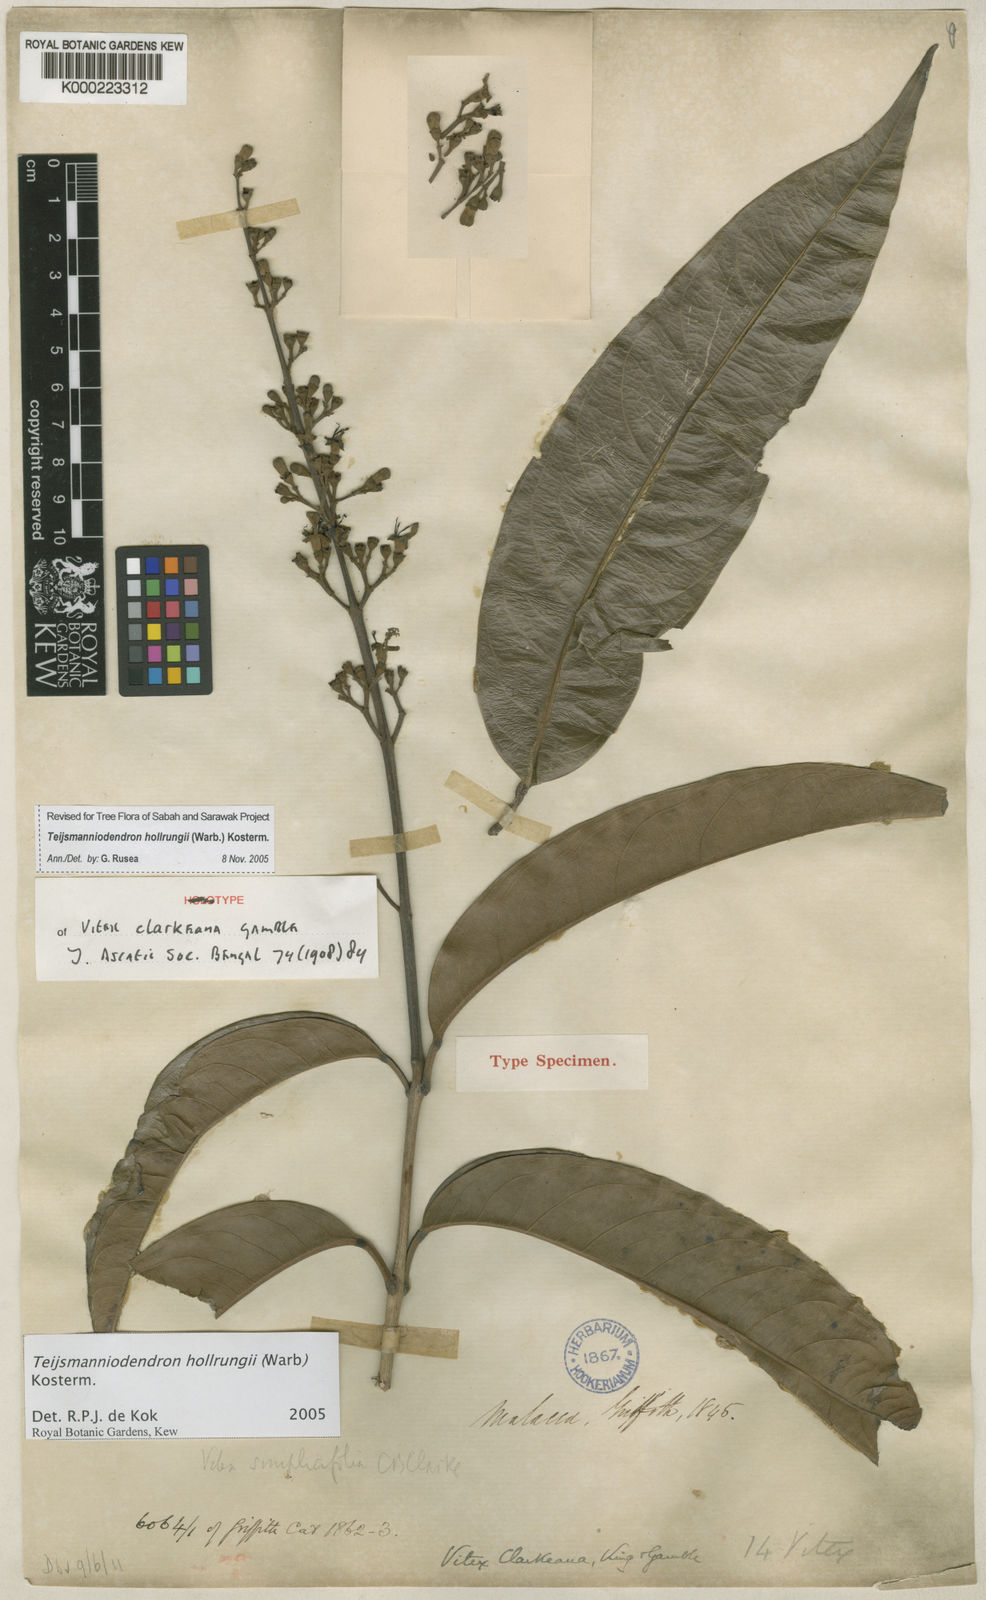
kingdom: Plantae
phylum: Tracheophyta
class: Magnoliopsida
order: Lamiales
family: Lamiaceae
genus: Teijsmanniodendron
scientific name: Teijsmanniodendron hollrungii
